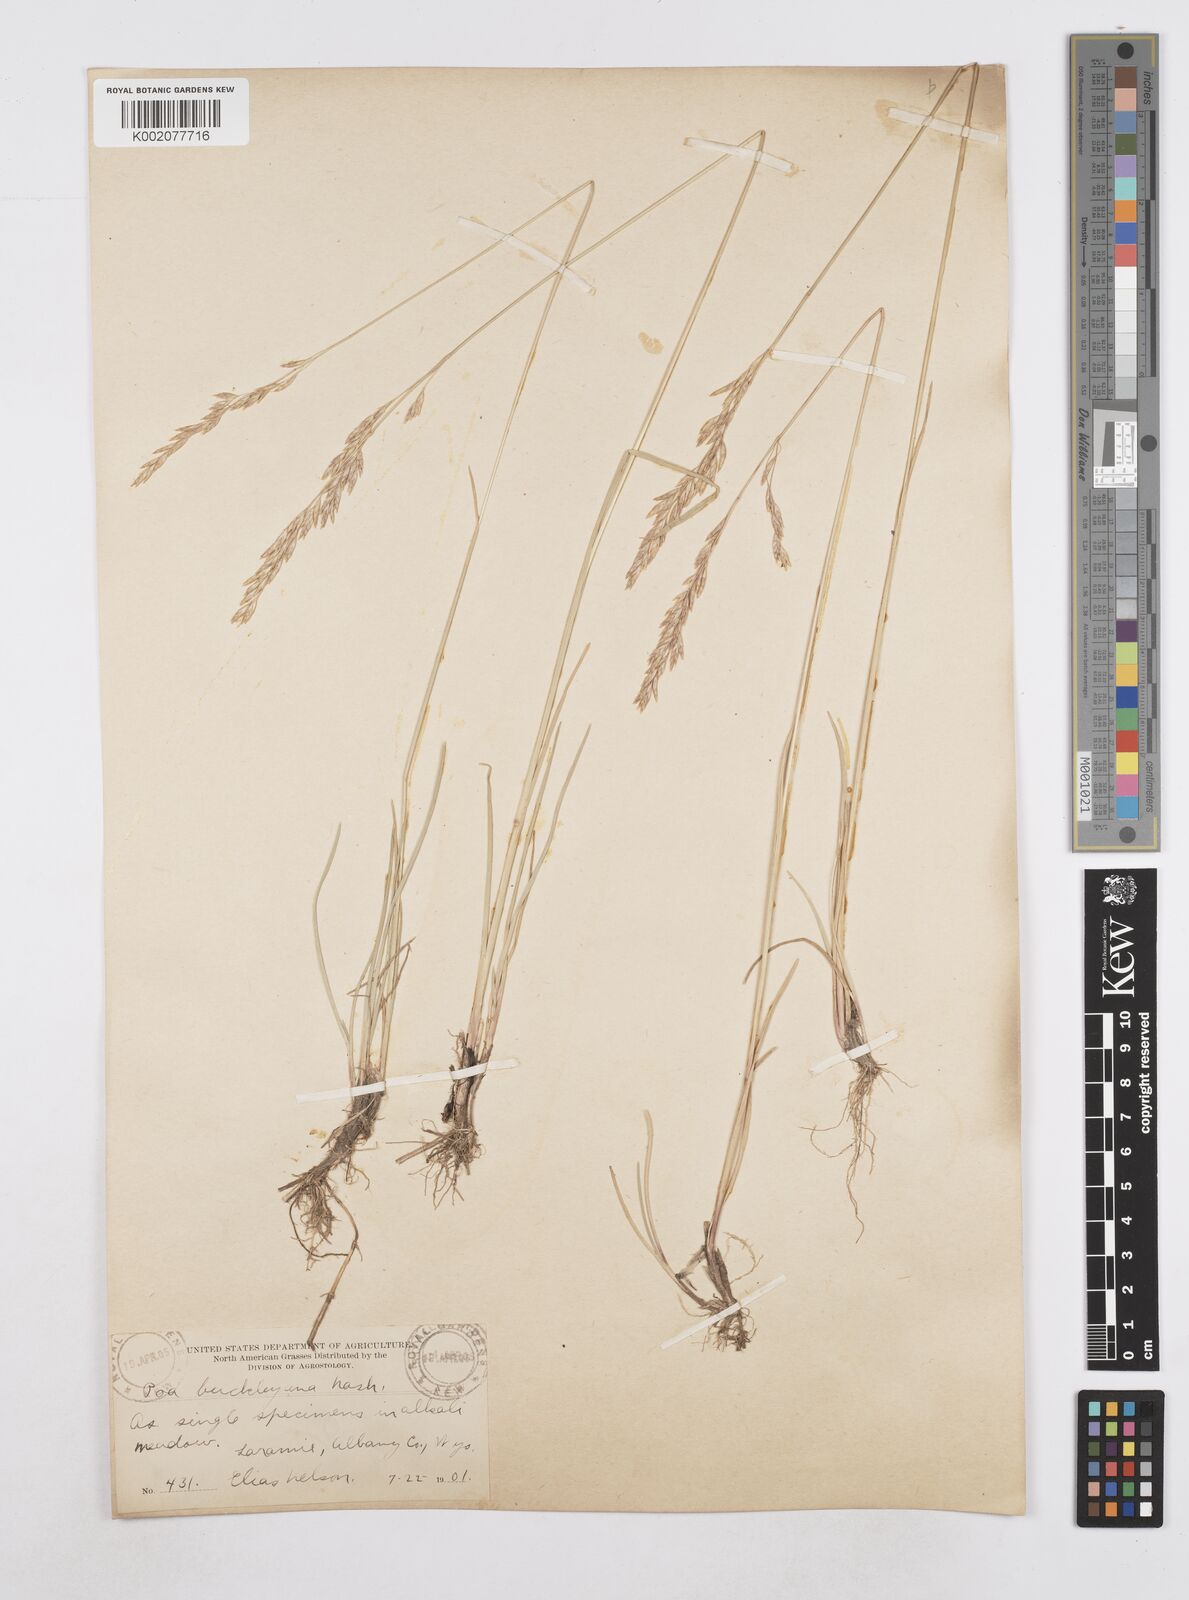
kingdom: Plantae
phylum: Tracheophyta
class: Liliopsida
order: Poales
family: Poaceae
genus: Poa
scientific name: Poa secunda
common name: Sandberg bluegrass
